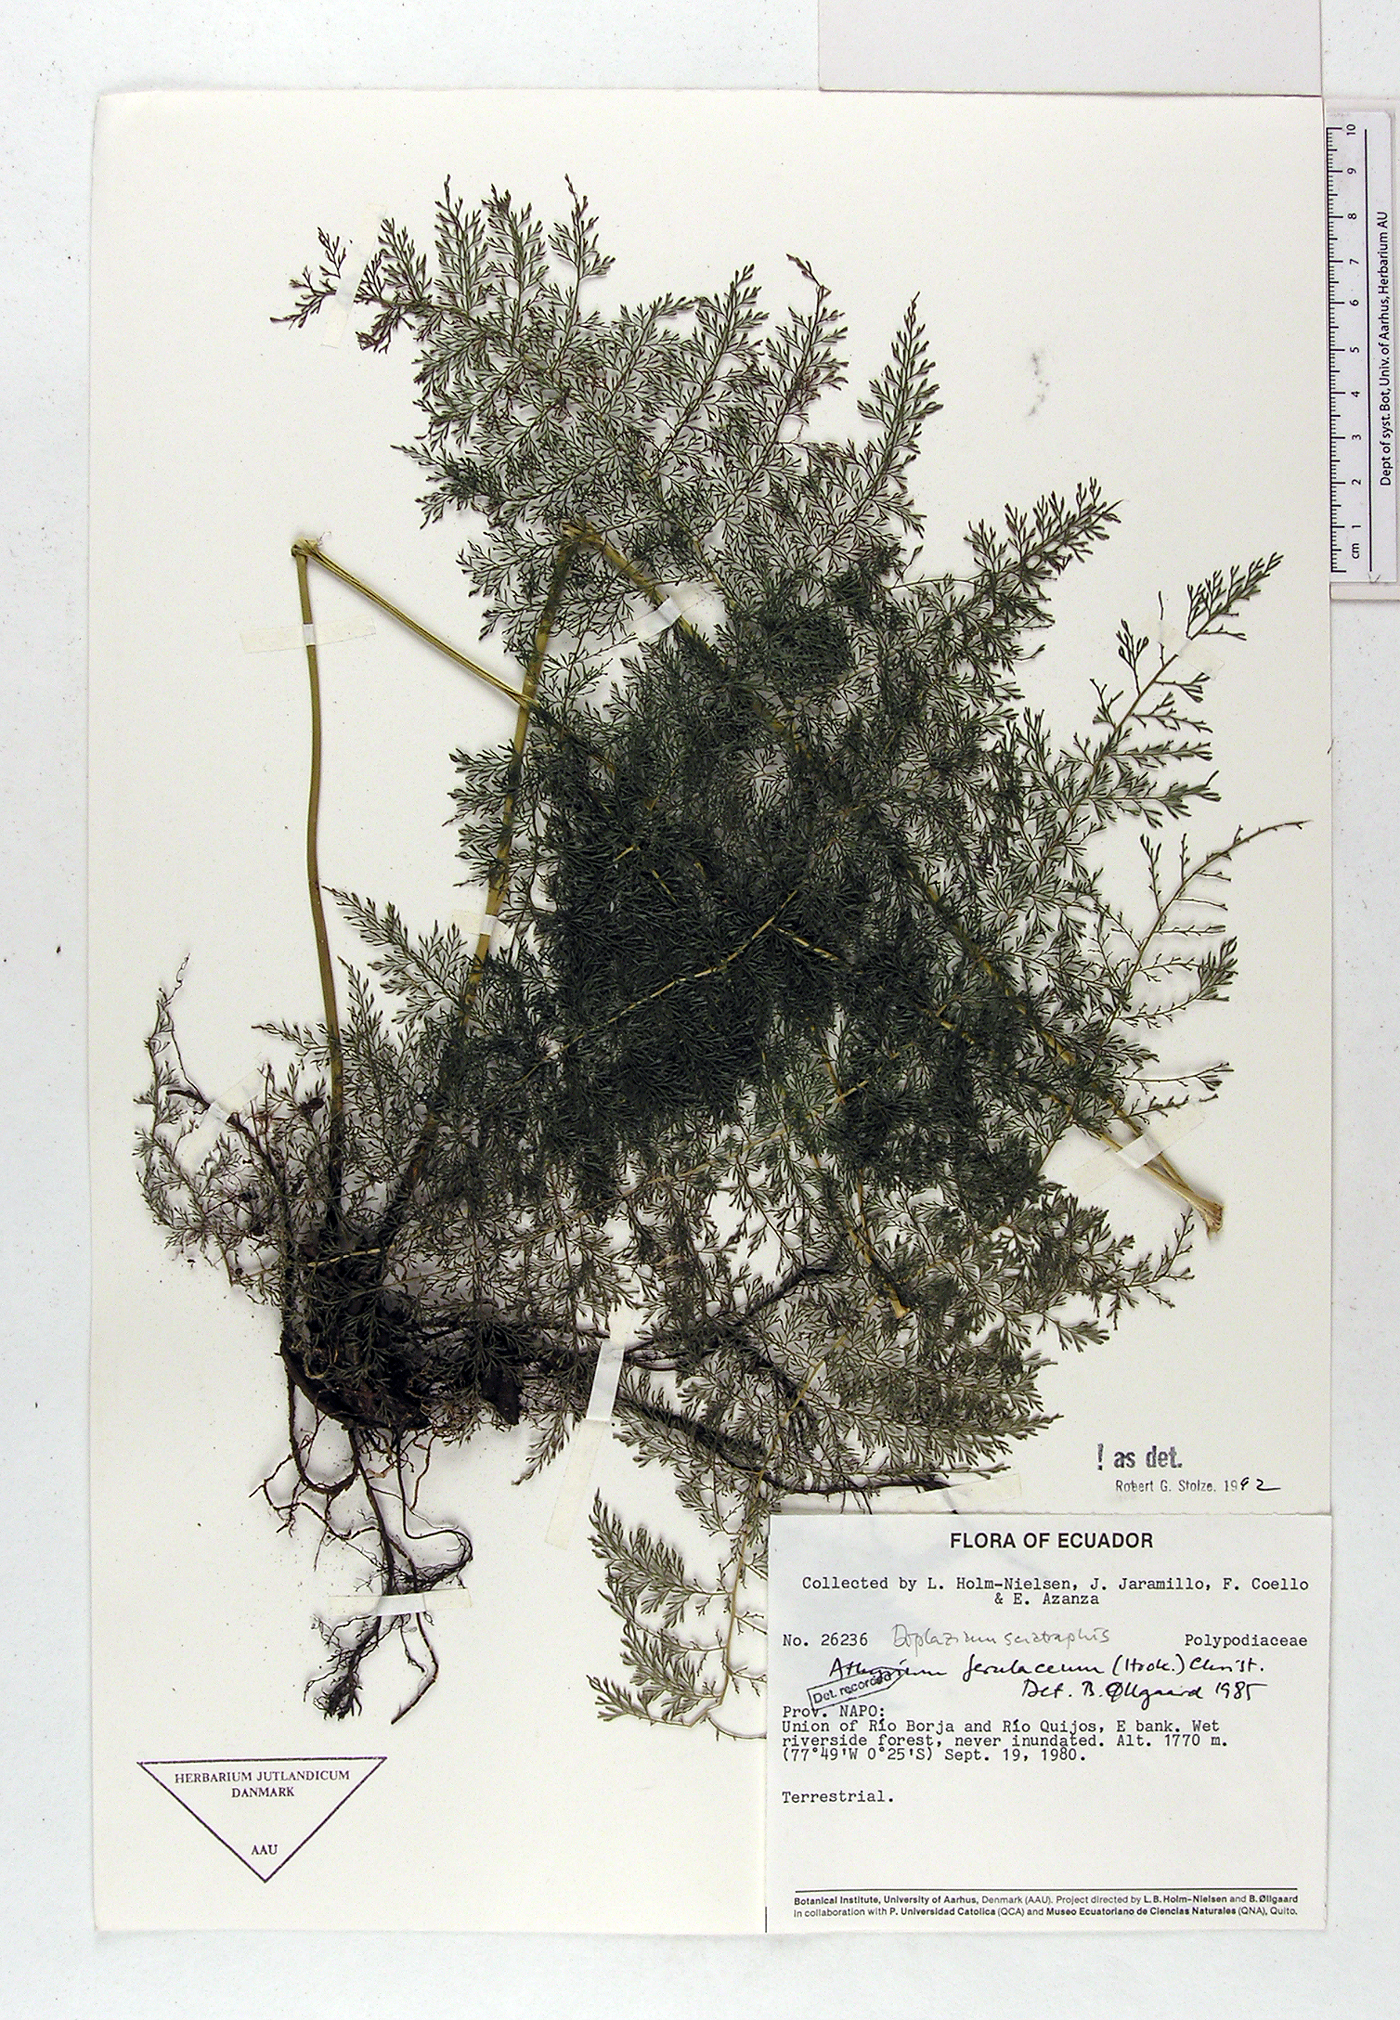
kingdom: Plantae
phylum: Tracheophyta
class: Polypodiopsida
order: Polypodiales
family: Athyriaceae
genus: Athyrium
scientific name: Athyrium ferulaceum
